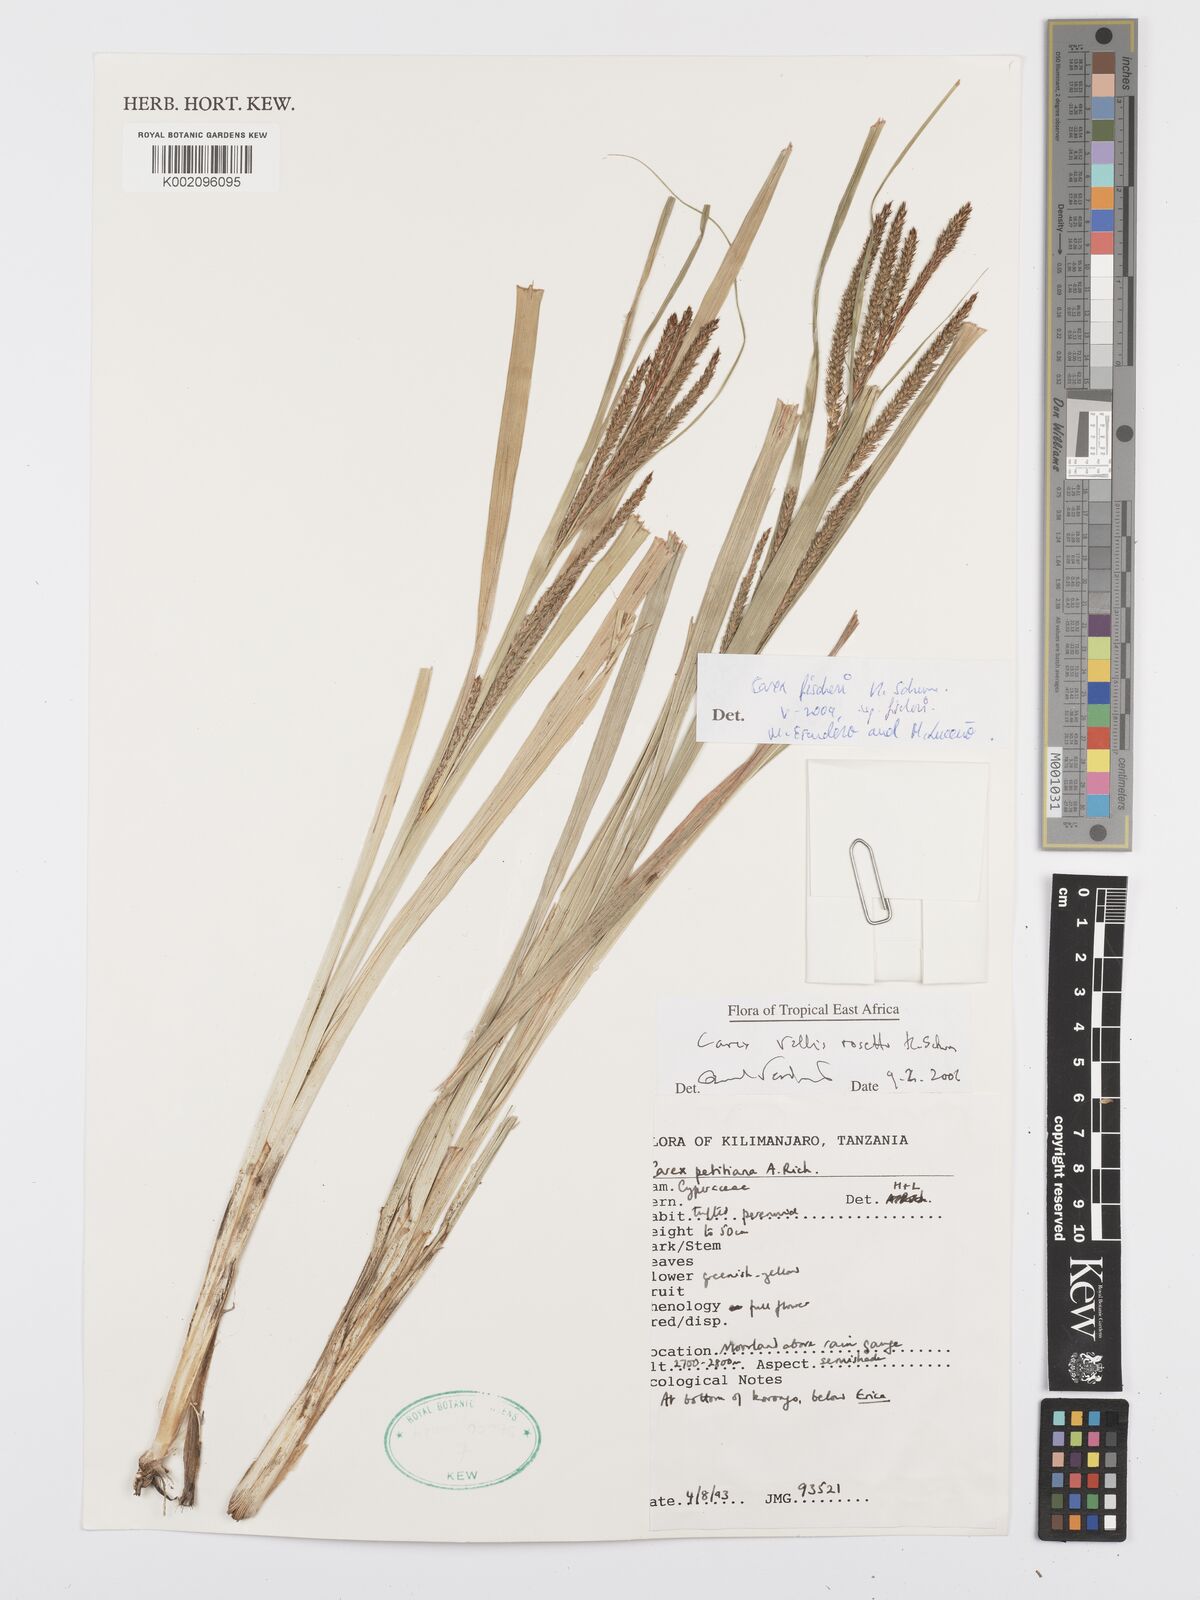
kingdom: Plantae
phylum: Tracheophyta
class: Liliopsida
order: Poales
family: Cyperaceae
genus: Carex
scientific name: Carex fischeri
